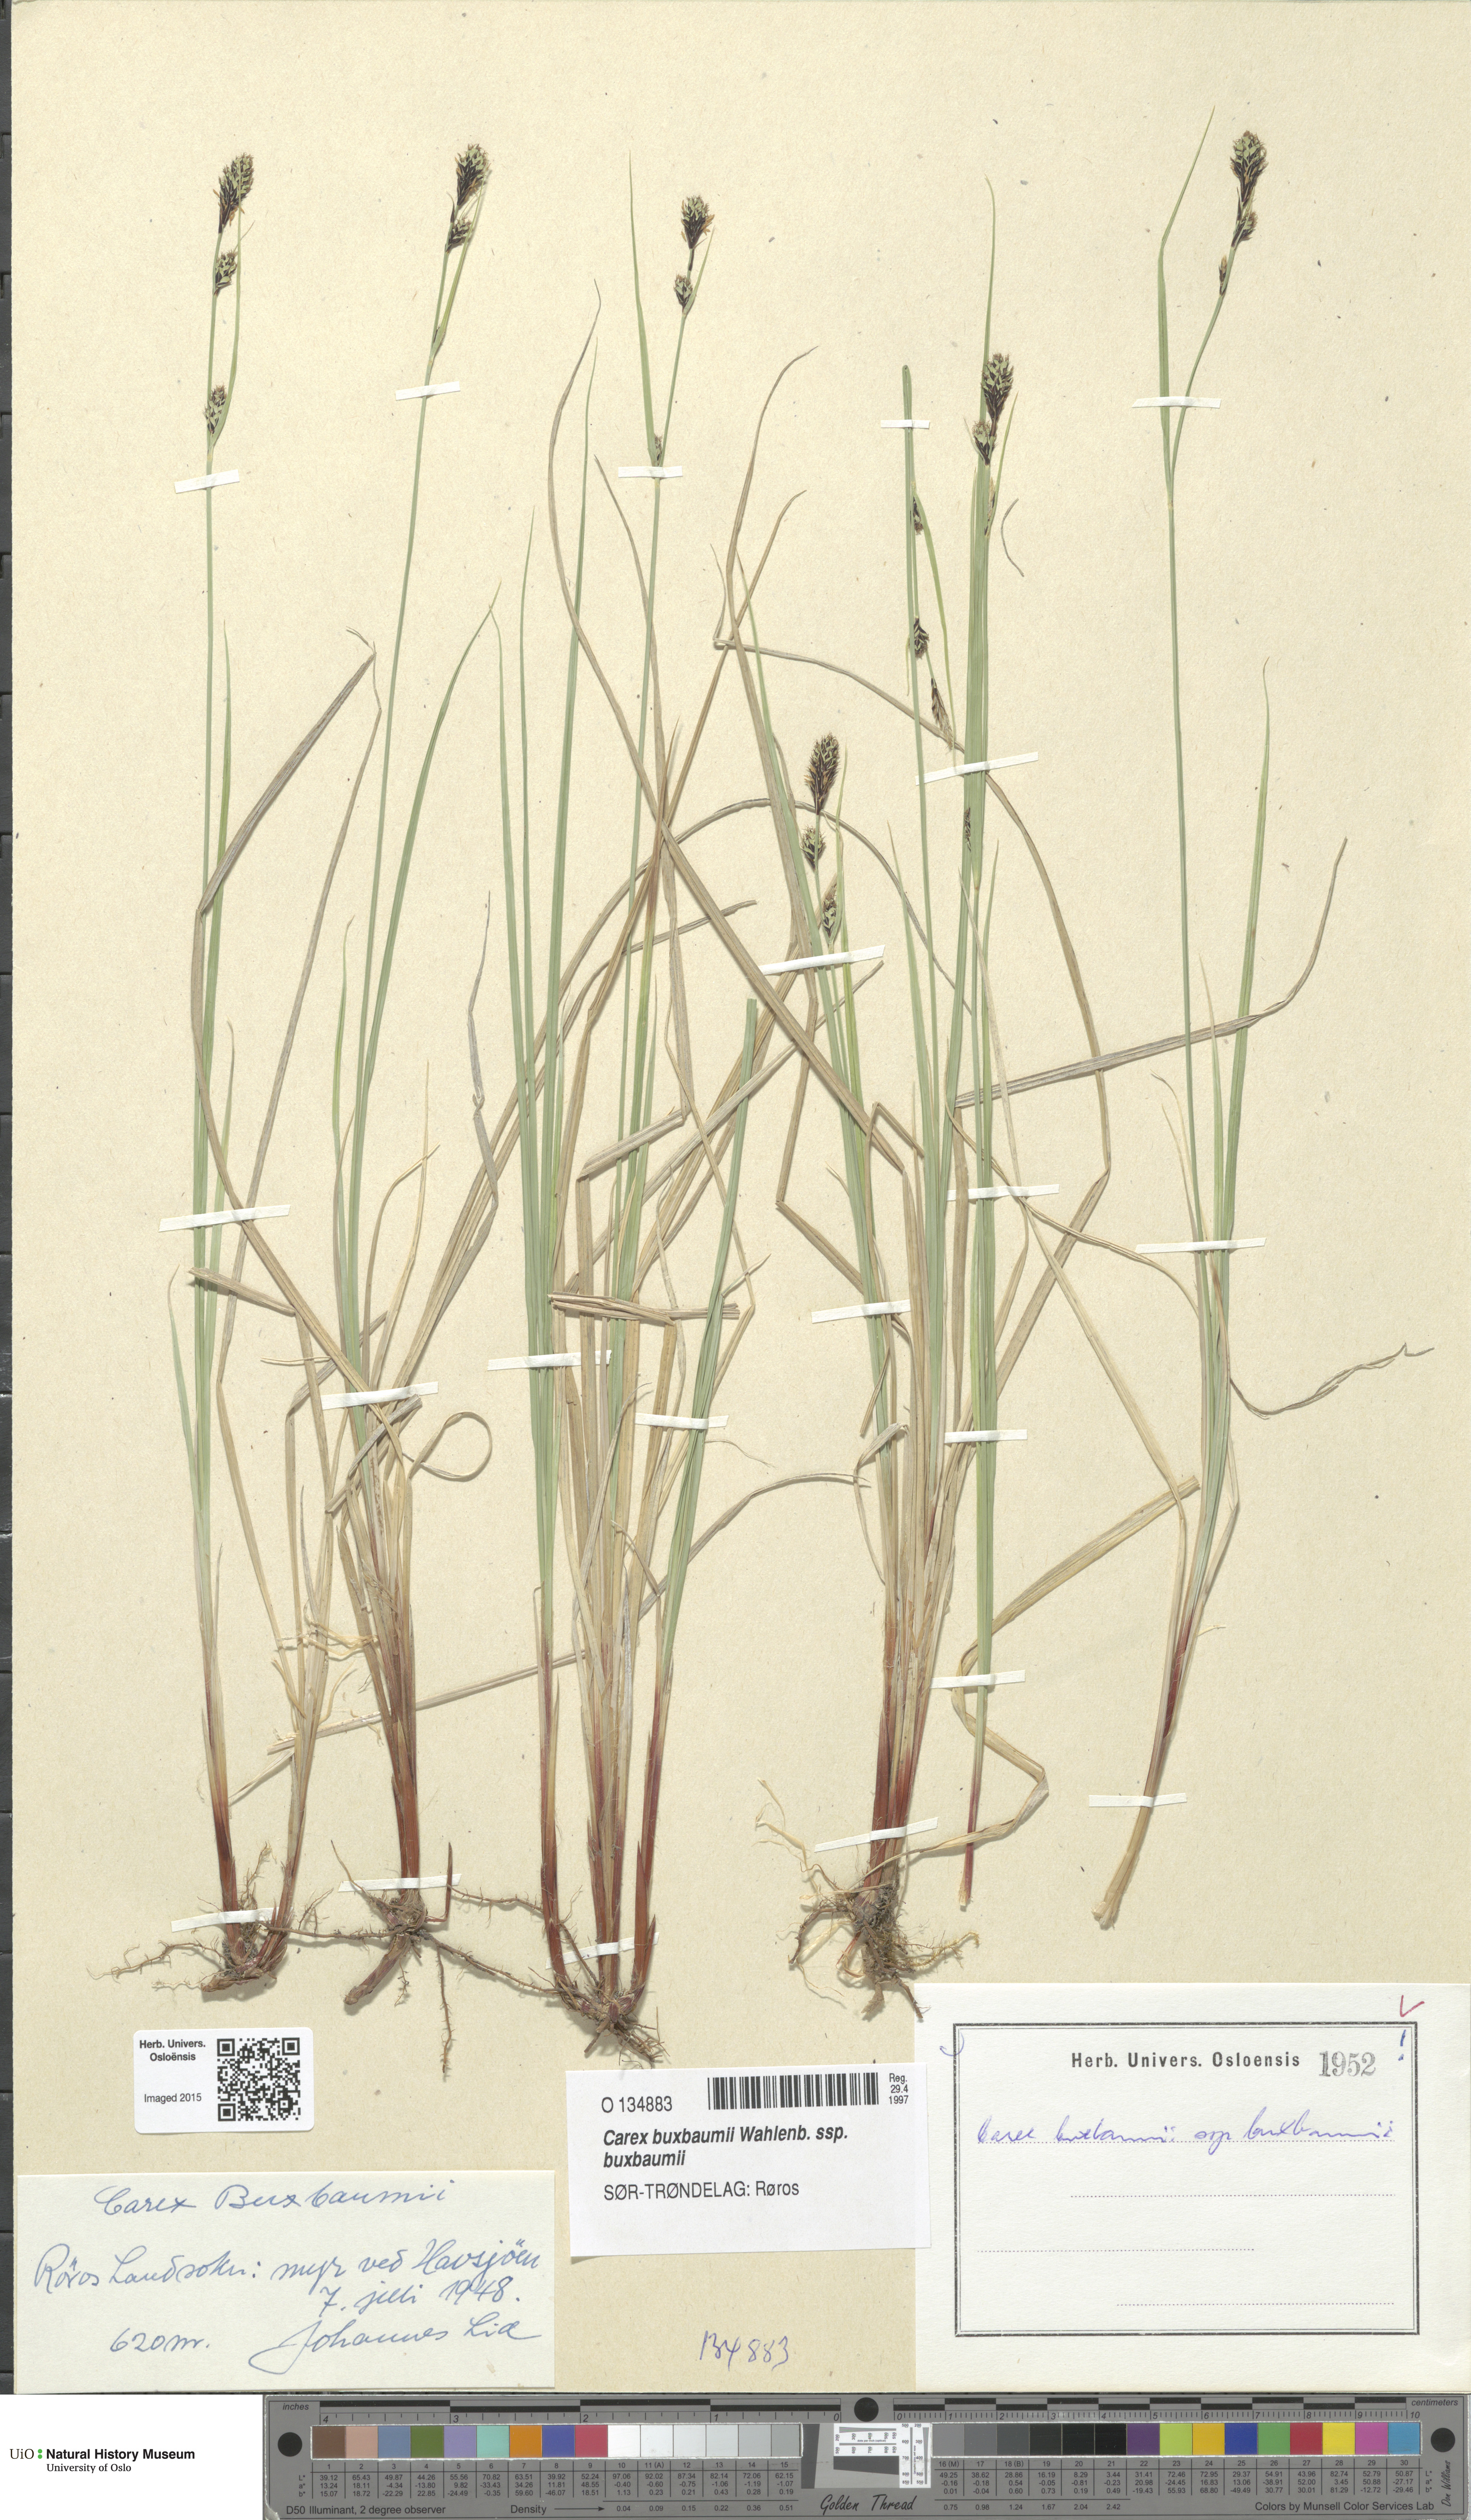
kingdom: Plantae
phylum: Tracheophyta
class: Liliopsida
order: Poales
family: Cyperaceae
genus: Carex
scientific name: Carex buxbaumii
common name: Club sedge
